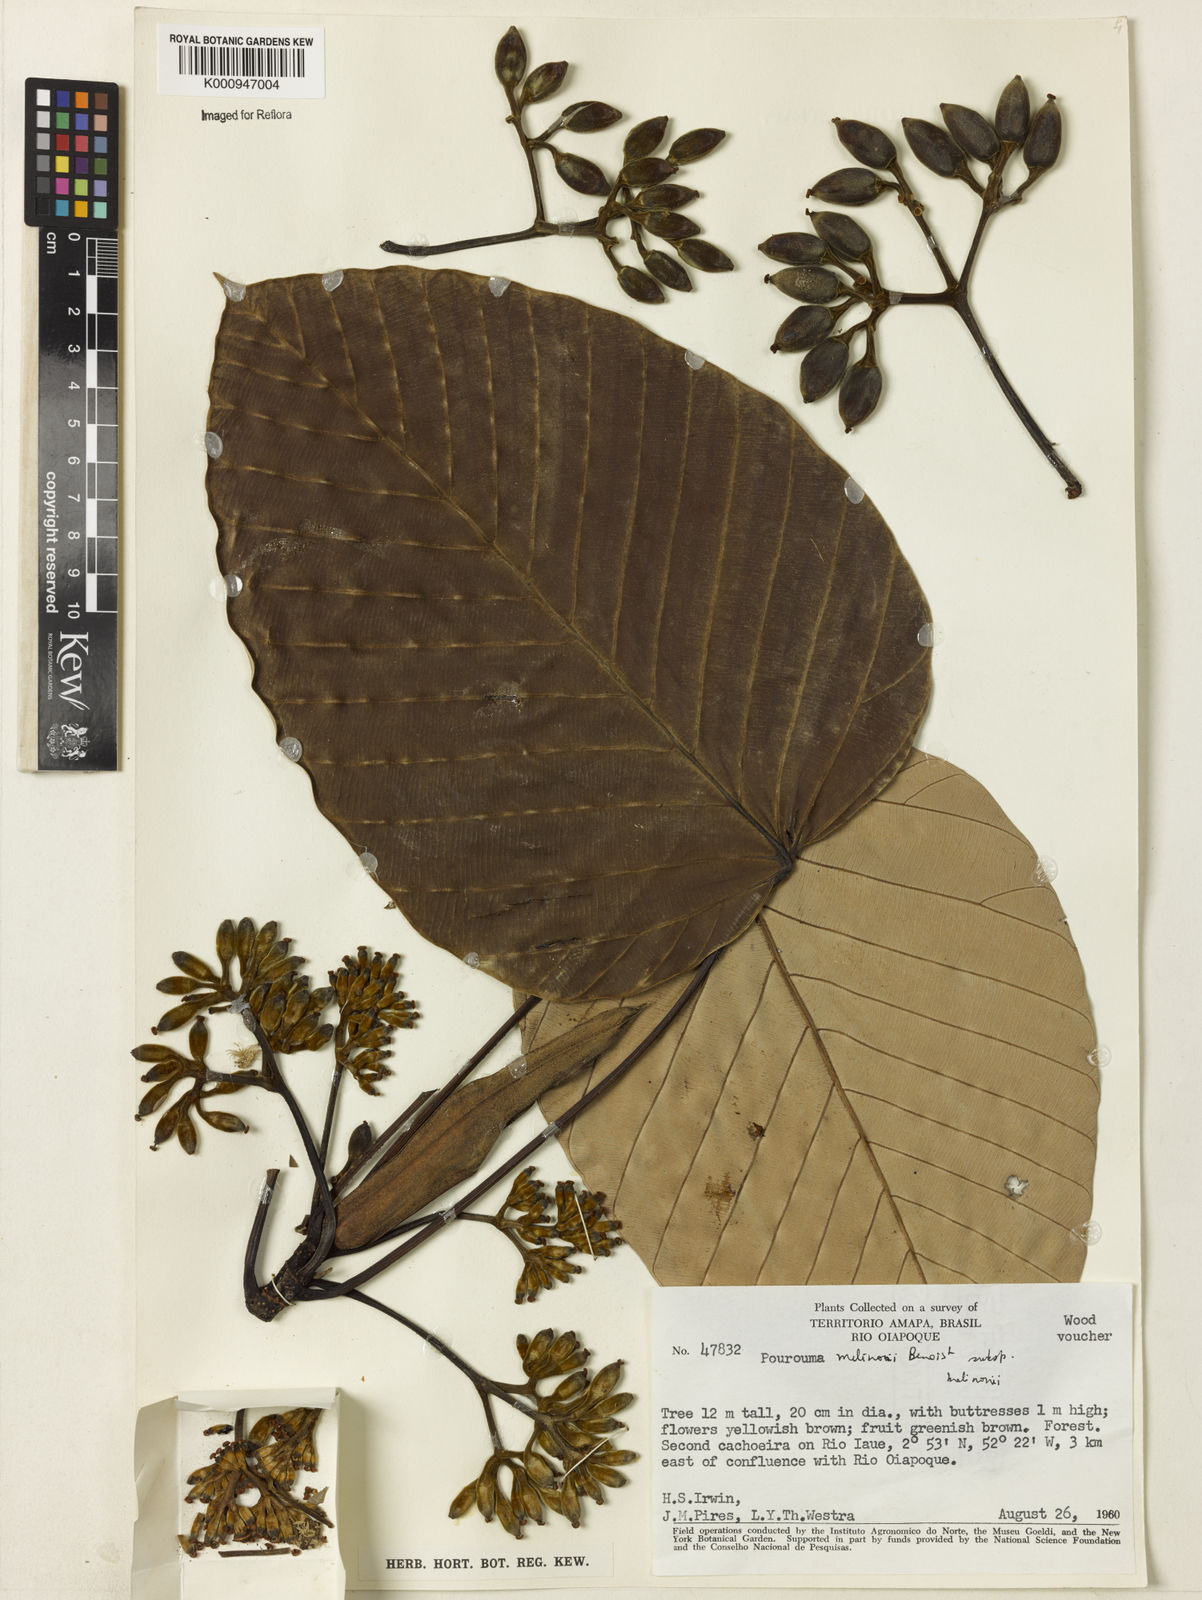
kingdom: Plantae
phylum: Tracheophyta
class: Magnoliopsida
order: Rosales
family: Urticaceae
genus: Pourouma
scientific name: Pourouma melinonii
